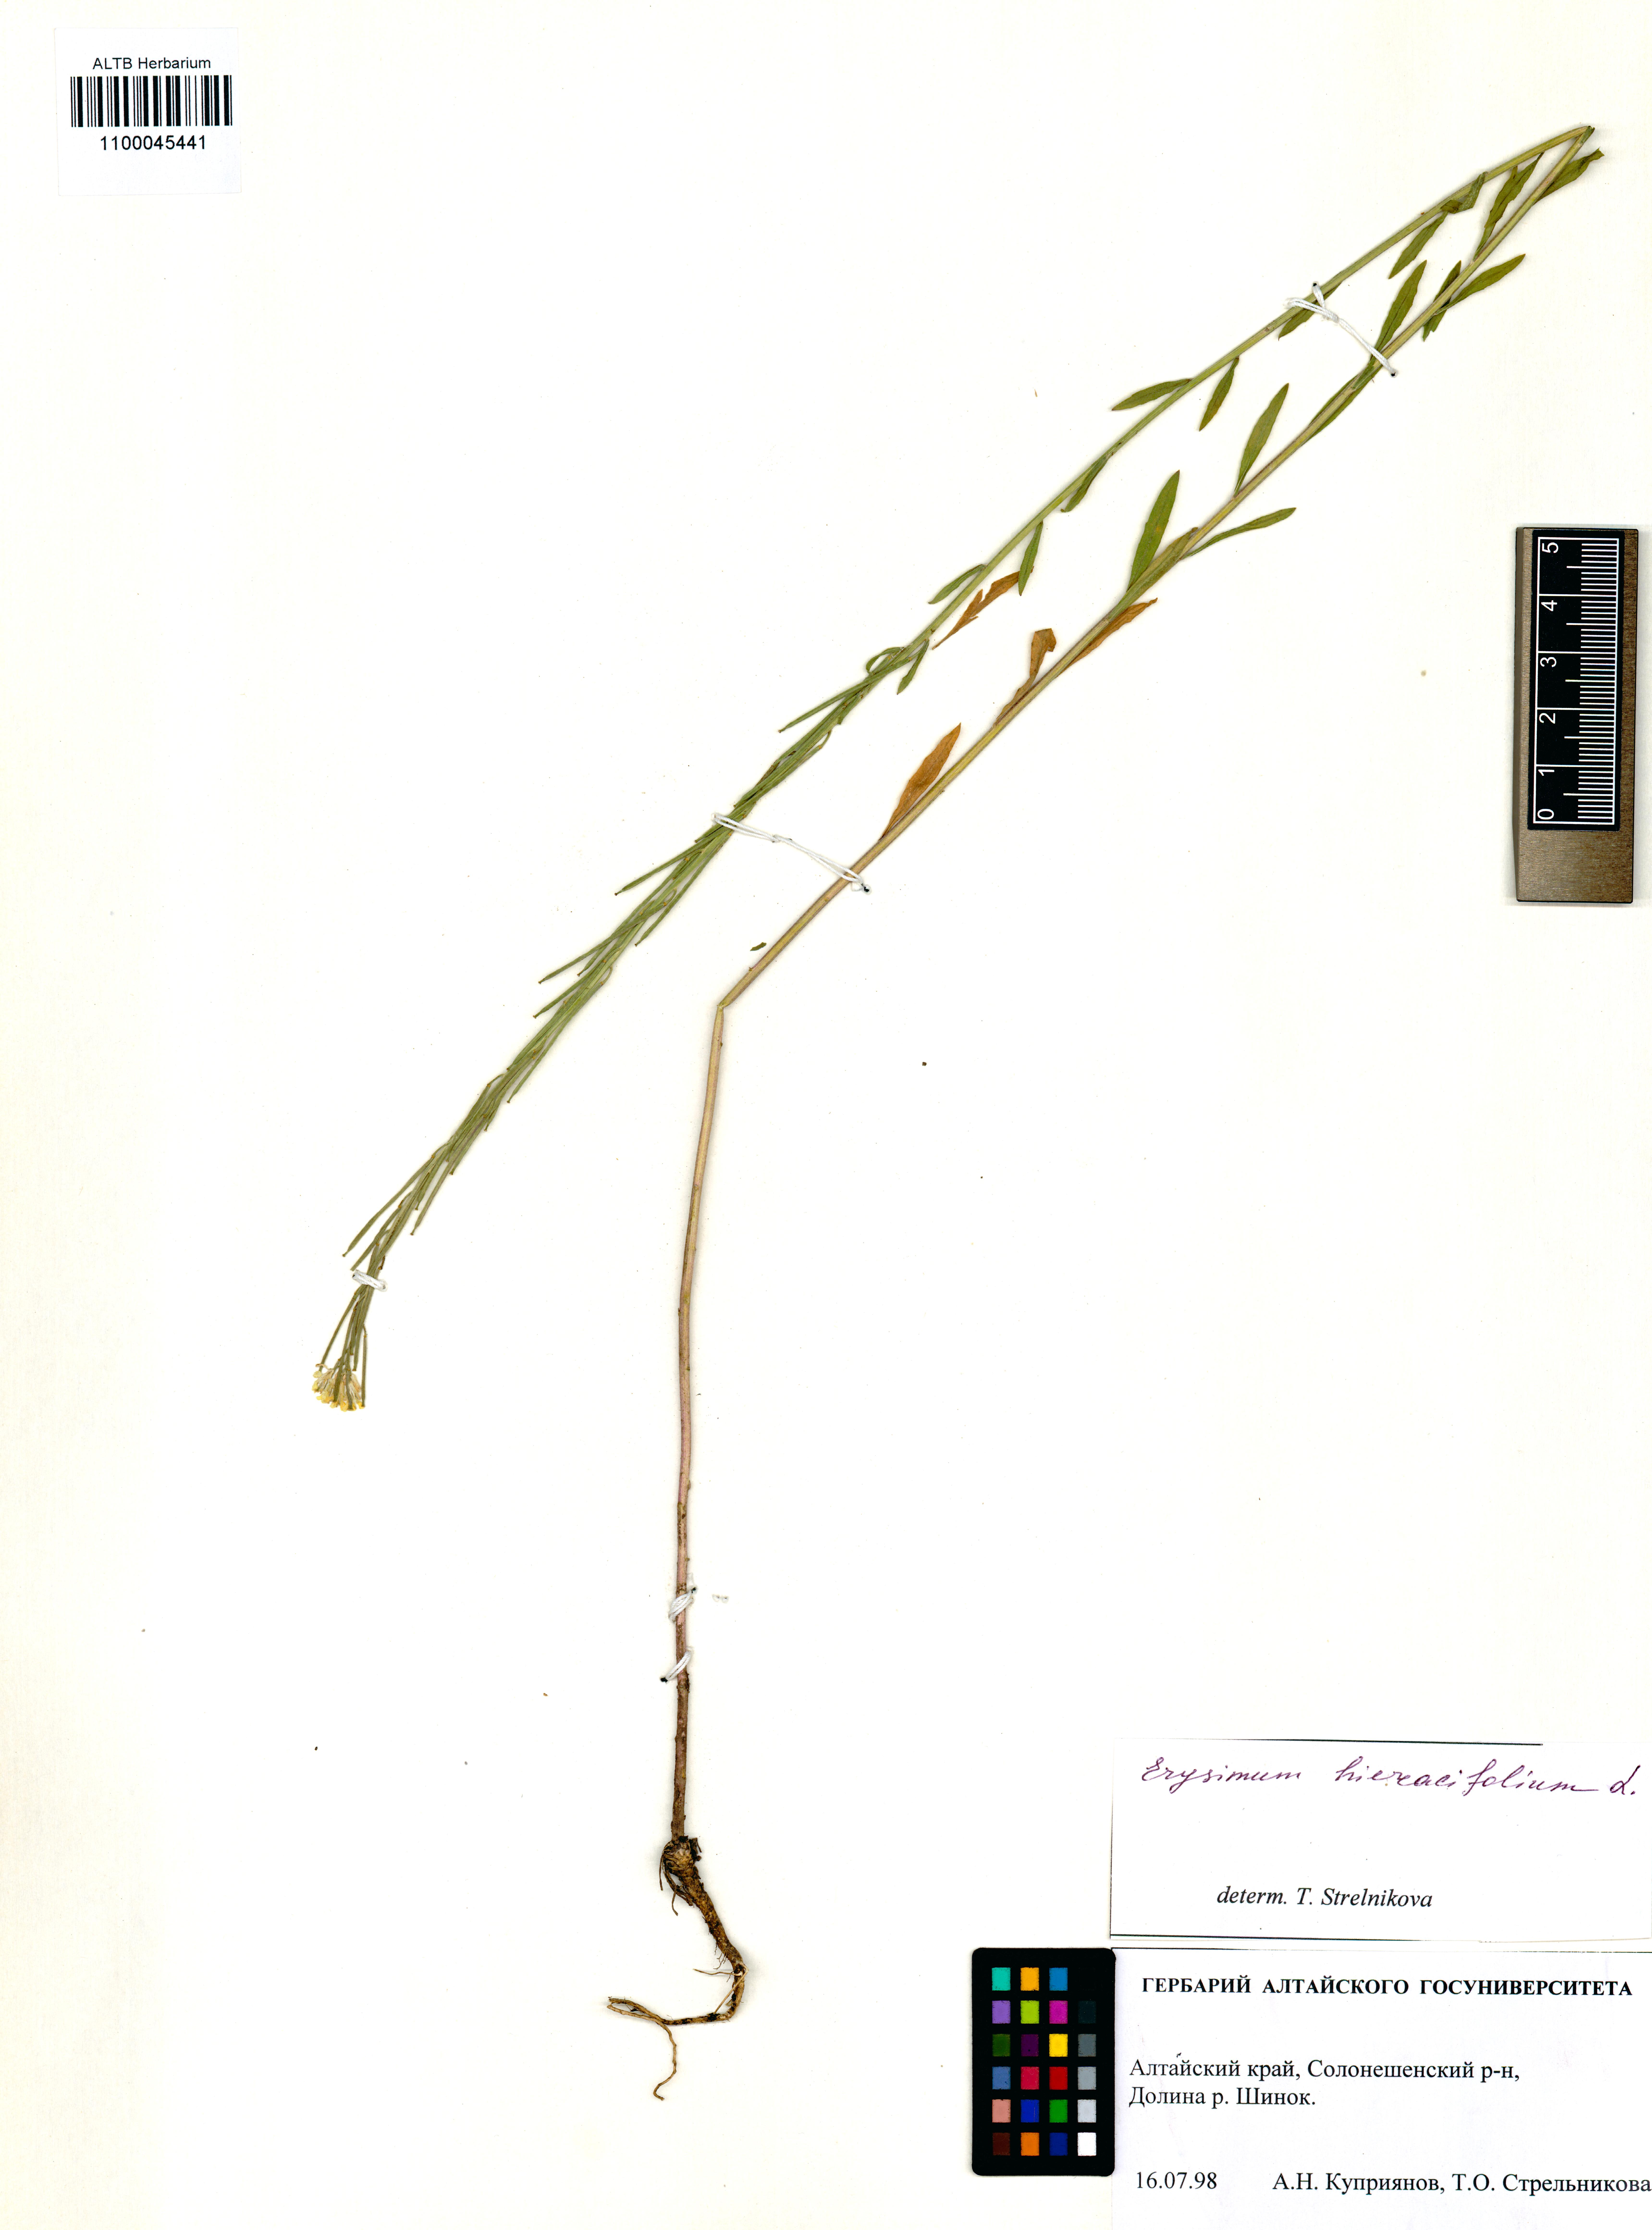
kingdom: Plantae
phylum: Tracheophyta
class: Magnoliopsida
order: Brassicales
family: Brassicaceae
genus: Erysimum
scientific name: Erysimum hieraciifolium
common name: European wallflower
